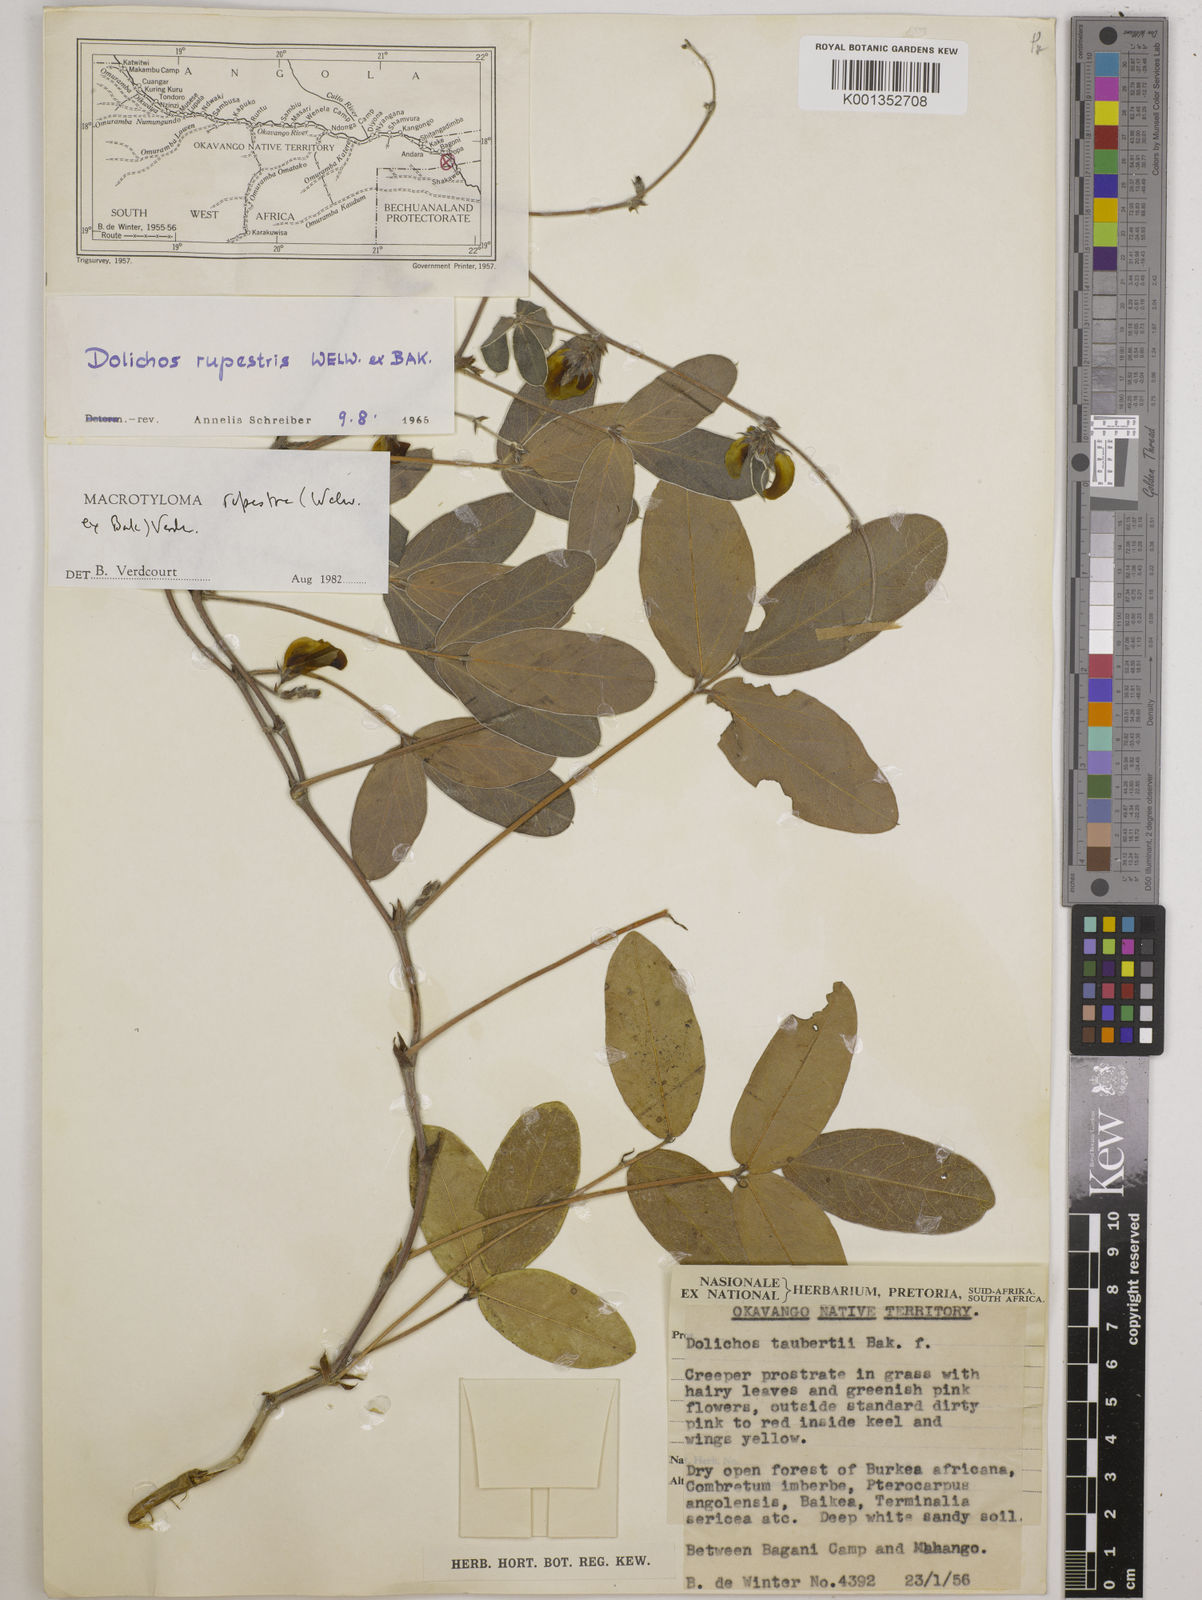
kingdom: Plantae
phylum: Tracheophyta
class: Magnoliopsida
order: Fabales
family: Fabaceae
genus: Macrotyloma
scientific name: Macrotyloma rupestre
